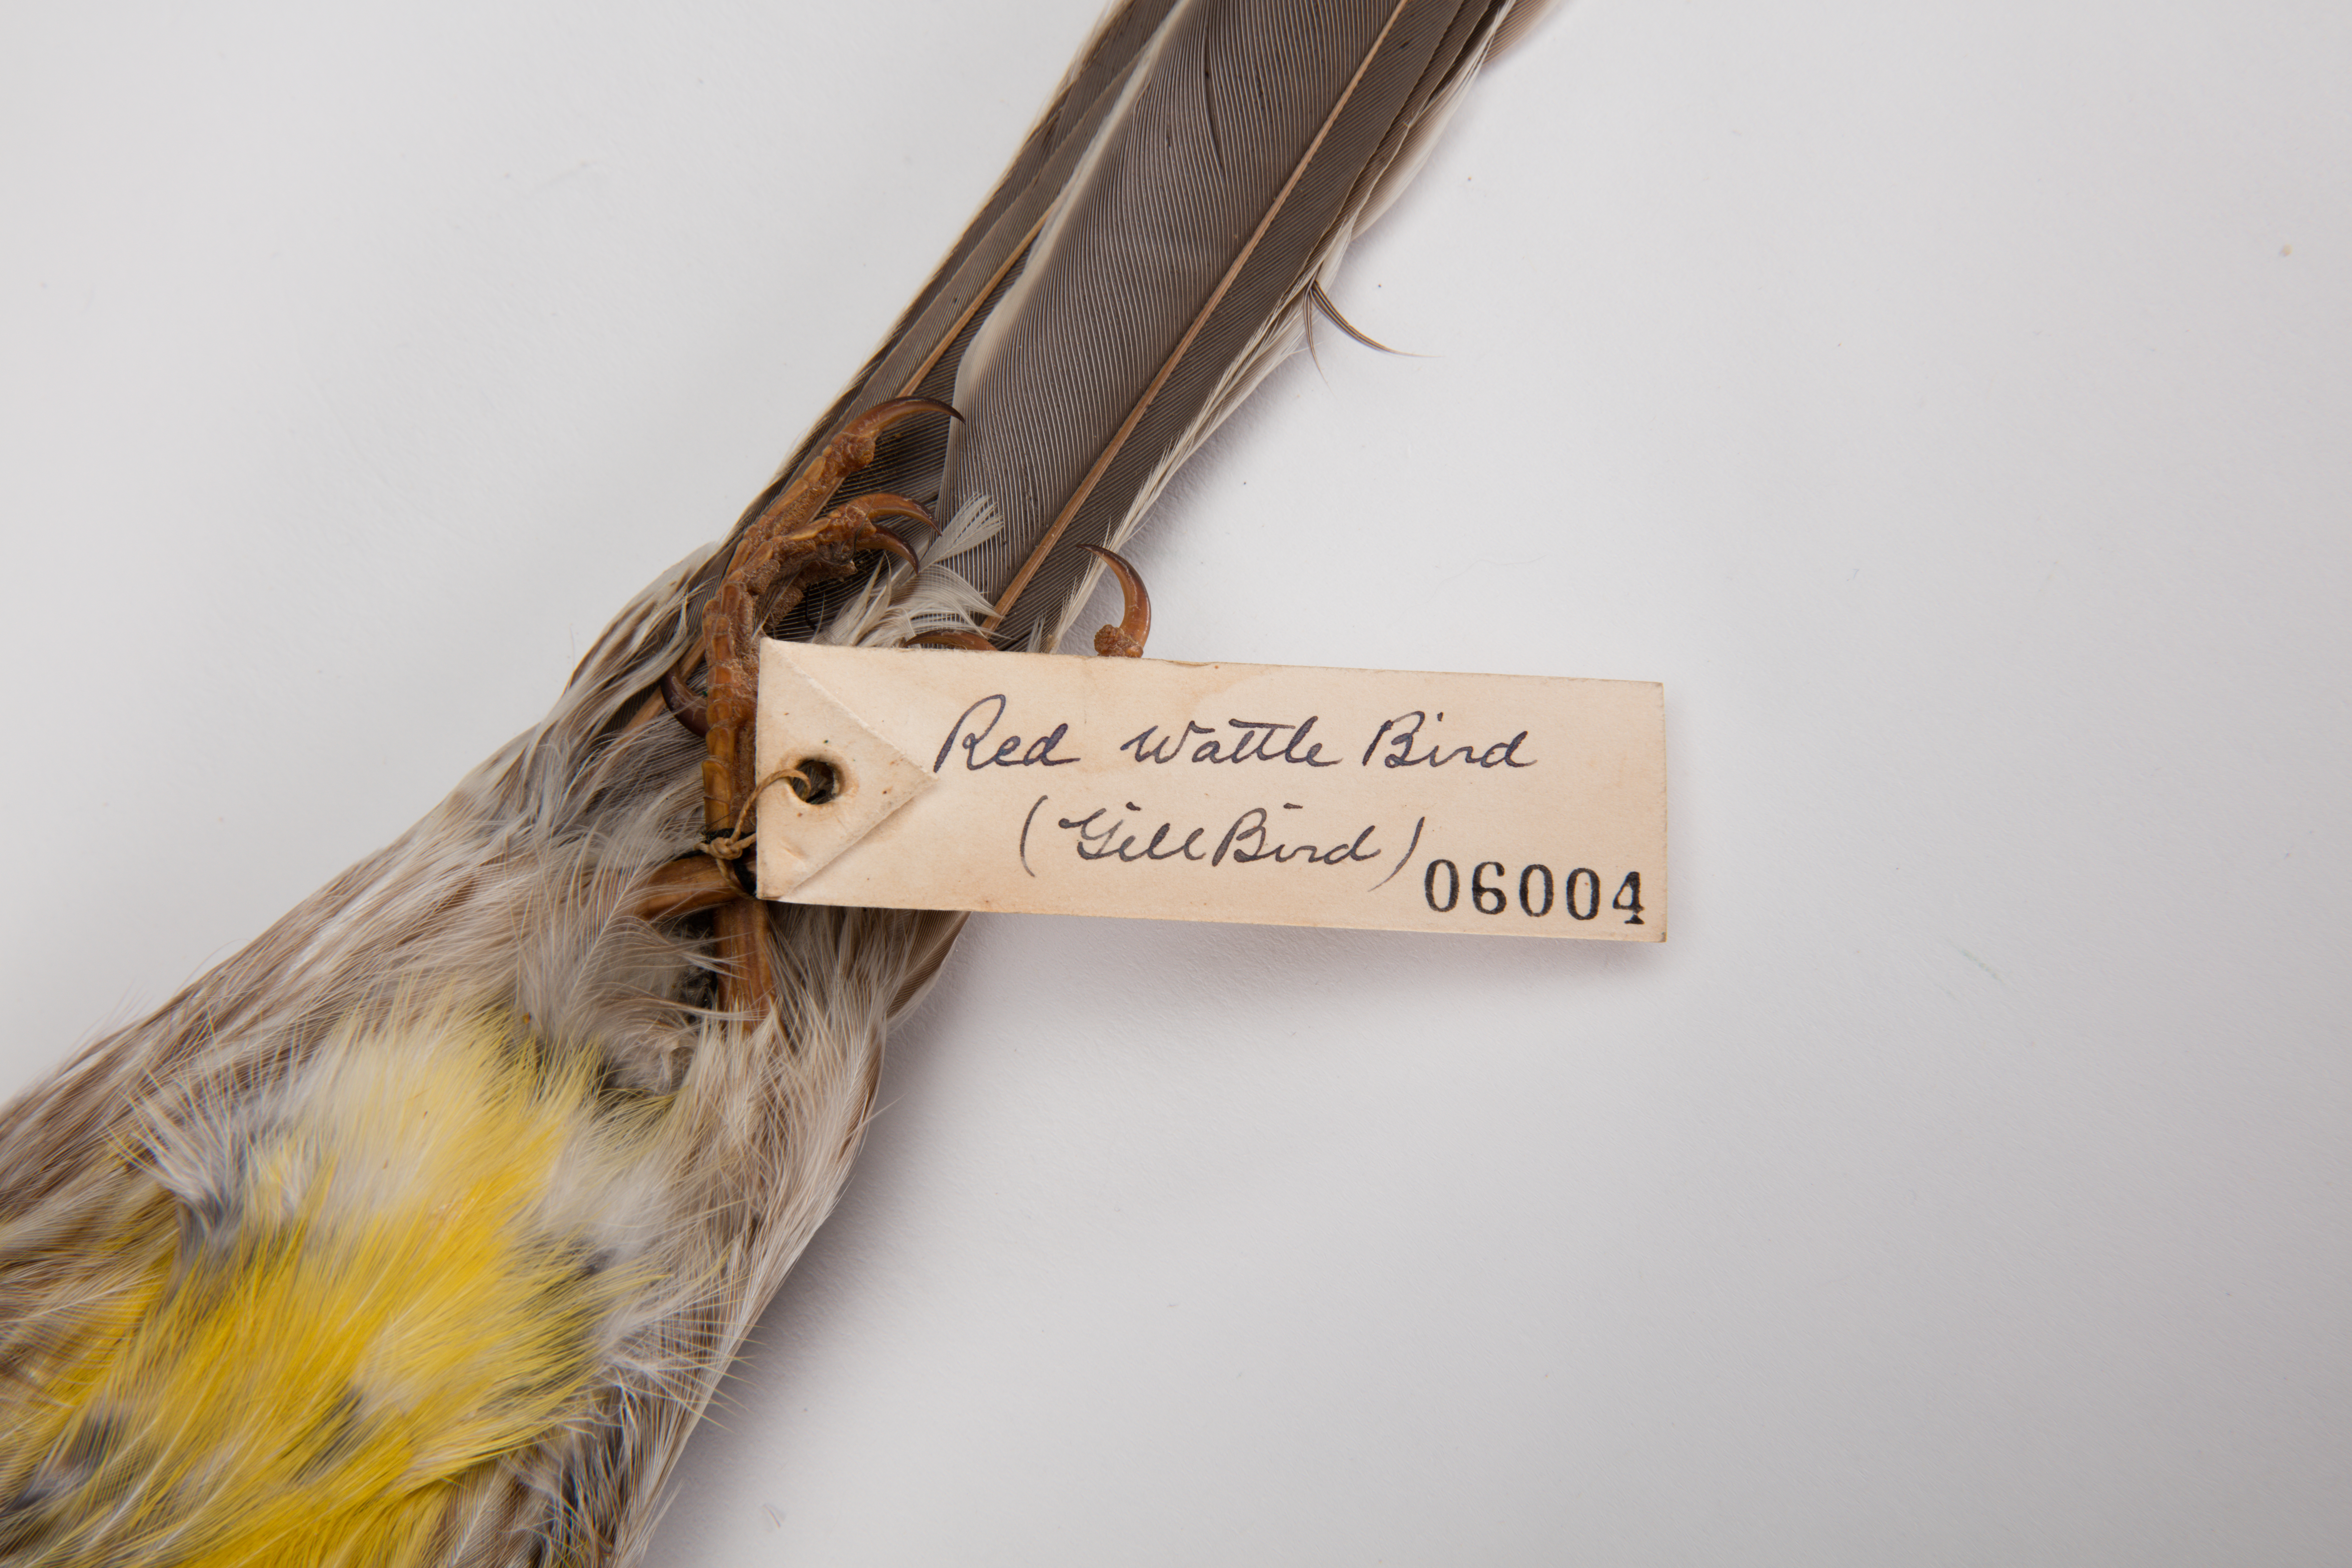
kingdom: Animalia
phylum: Chordata
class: Aves
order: Passeriformes
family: Meliphagidae
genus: Anthochaera
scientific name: Anthochaera carunculata
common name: Red wattlebird
